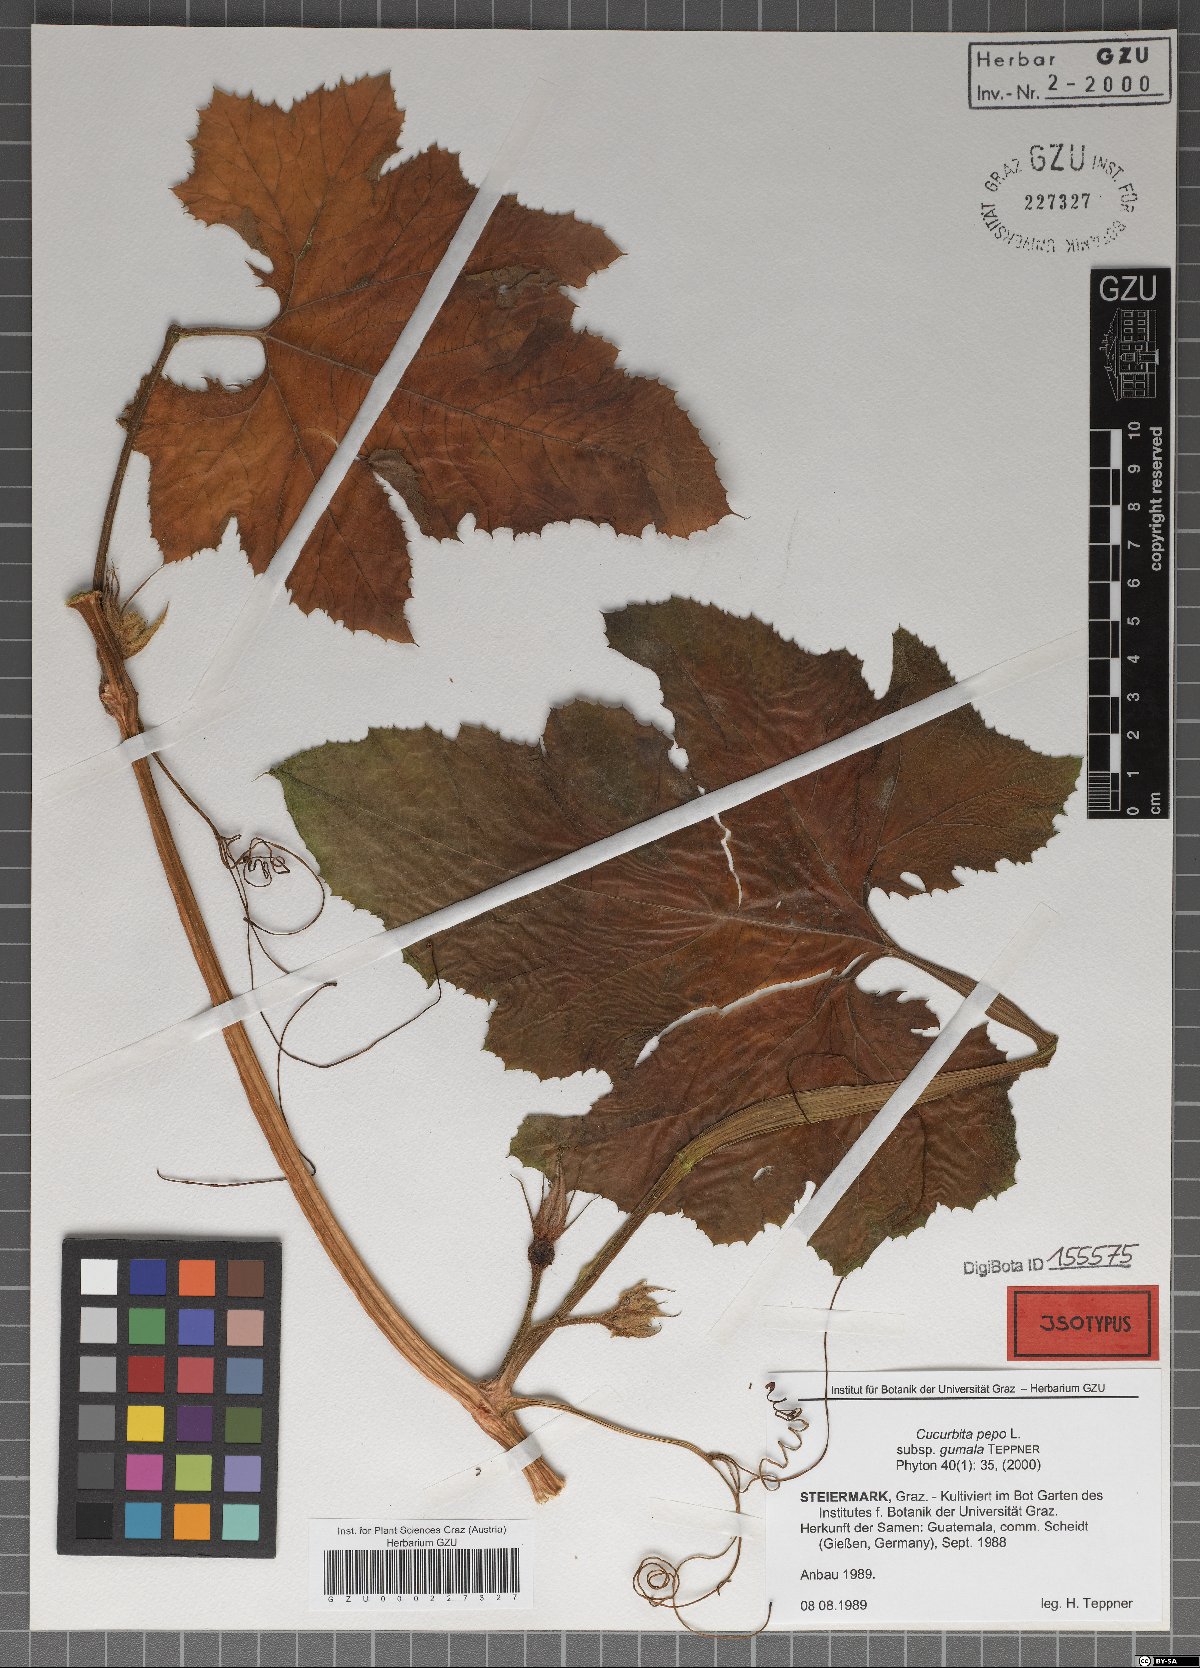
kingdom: Plantae
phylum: Tracheophyta
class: Magnoliopsida
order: Cucurbitales
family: Cucurbitaceae
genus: Cucurbita
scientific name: Cucurbita pepo
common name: Marrow
